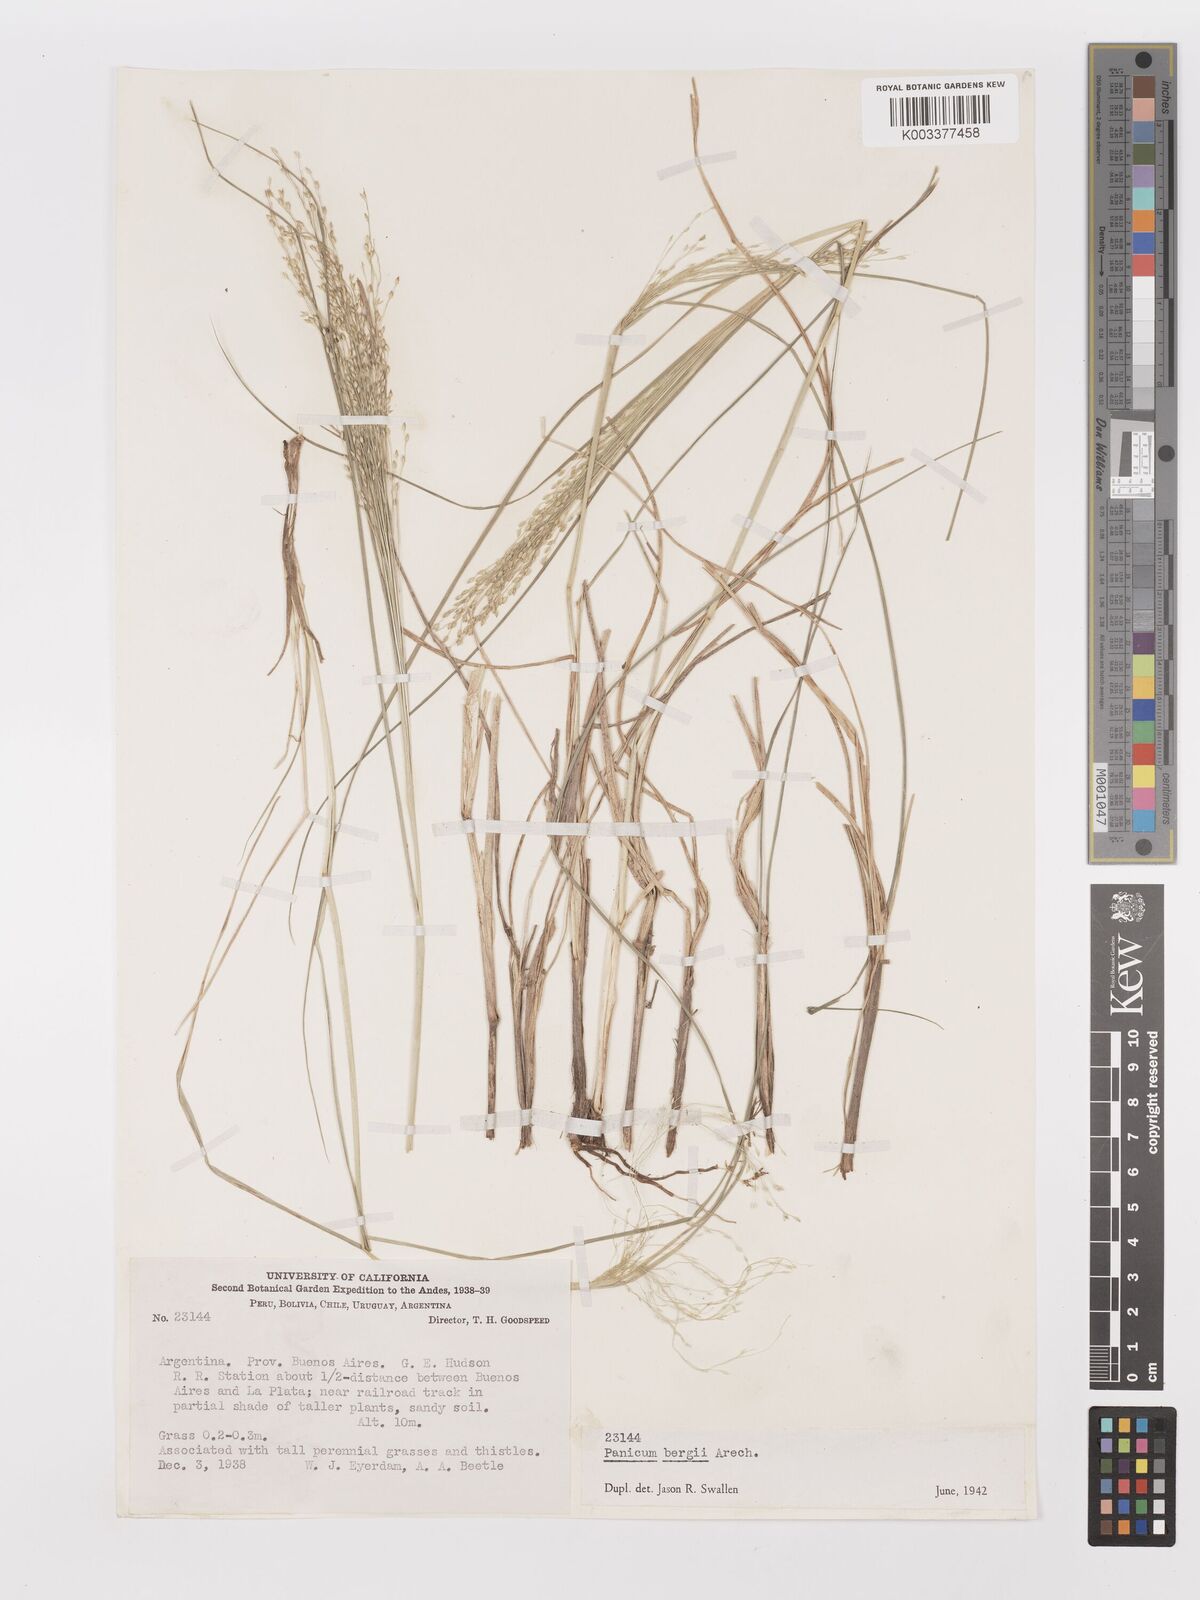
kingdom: Plantae
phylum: Tracheophyta
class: Liliopsida
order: Poales
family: Poaceae
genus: Panicum
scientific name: Panicum bergii
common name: Berg's panicgrass
